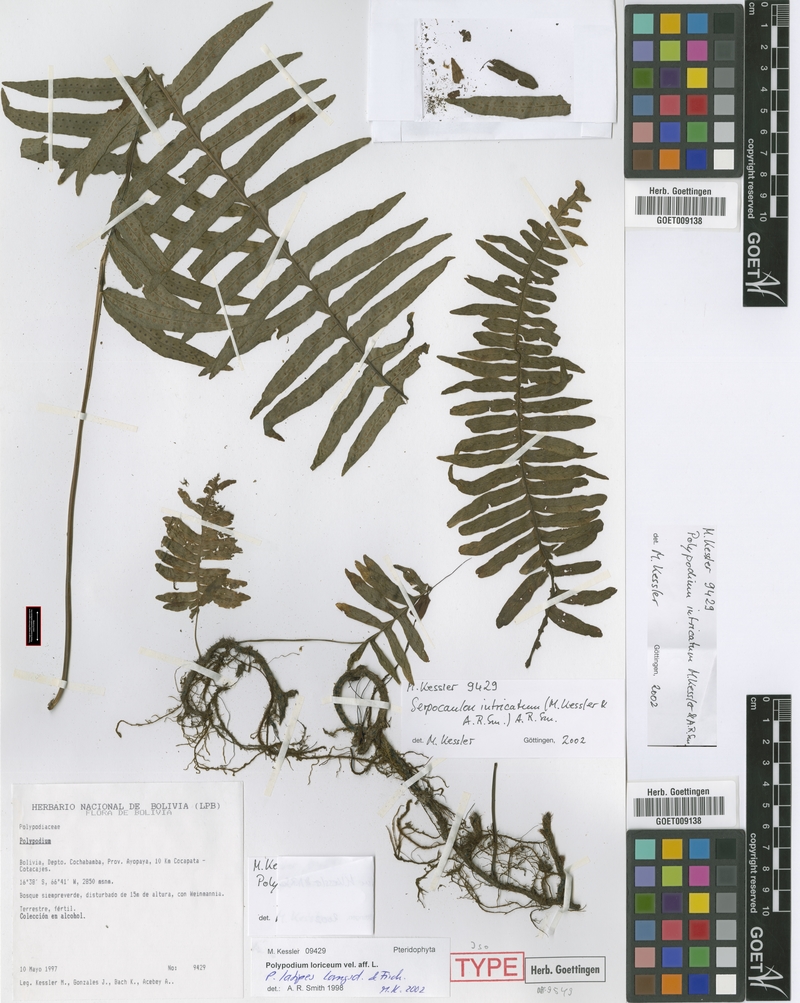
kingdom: Plantae
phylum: Tracheophyta
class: Polypodiopsida
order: Polypodiales
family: Polypodiaceae
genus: Serpocaulon
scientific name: Serpocaulon intricatum
